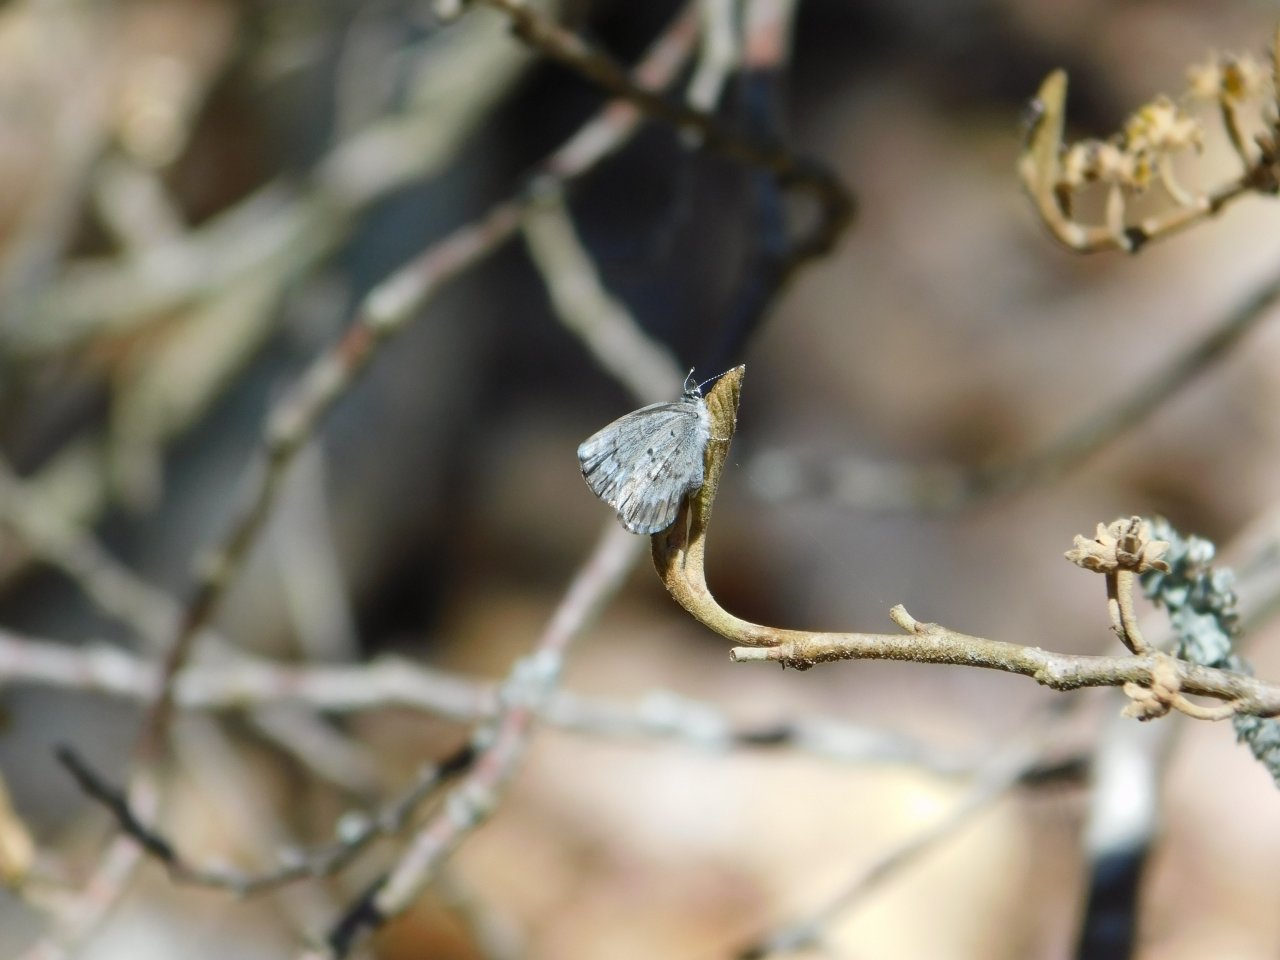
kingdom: Animalia
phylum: Arthropoda
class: Insecta
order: Lepidoptera
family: Lycaenidae
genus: Celastrina
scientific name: Celastrina lucia
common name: Northern Spring Azure
